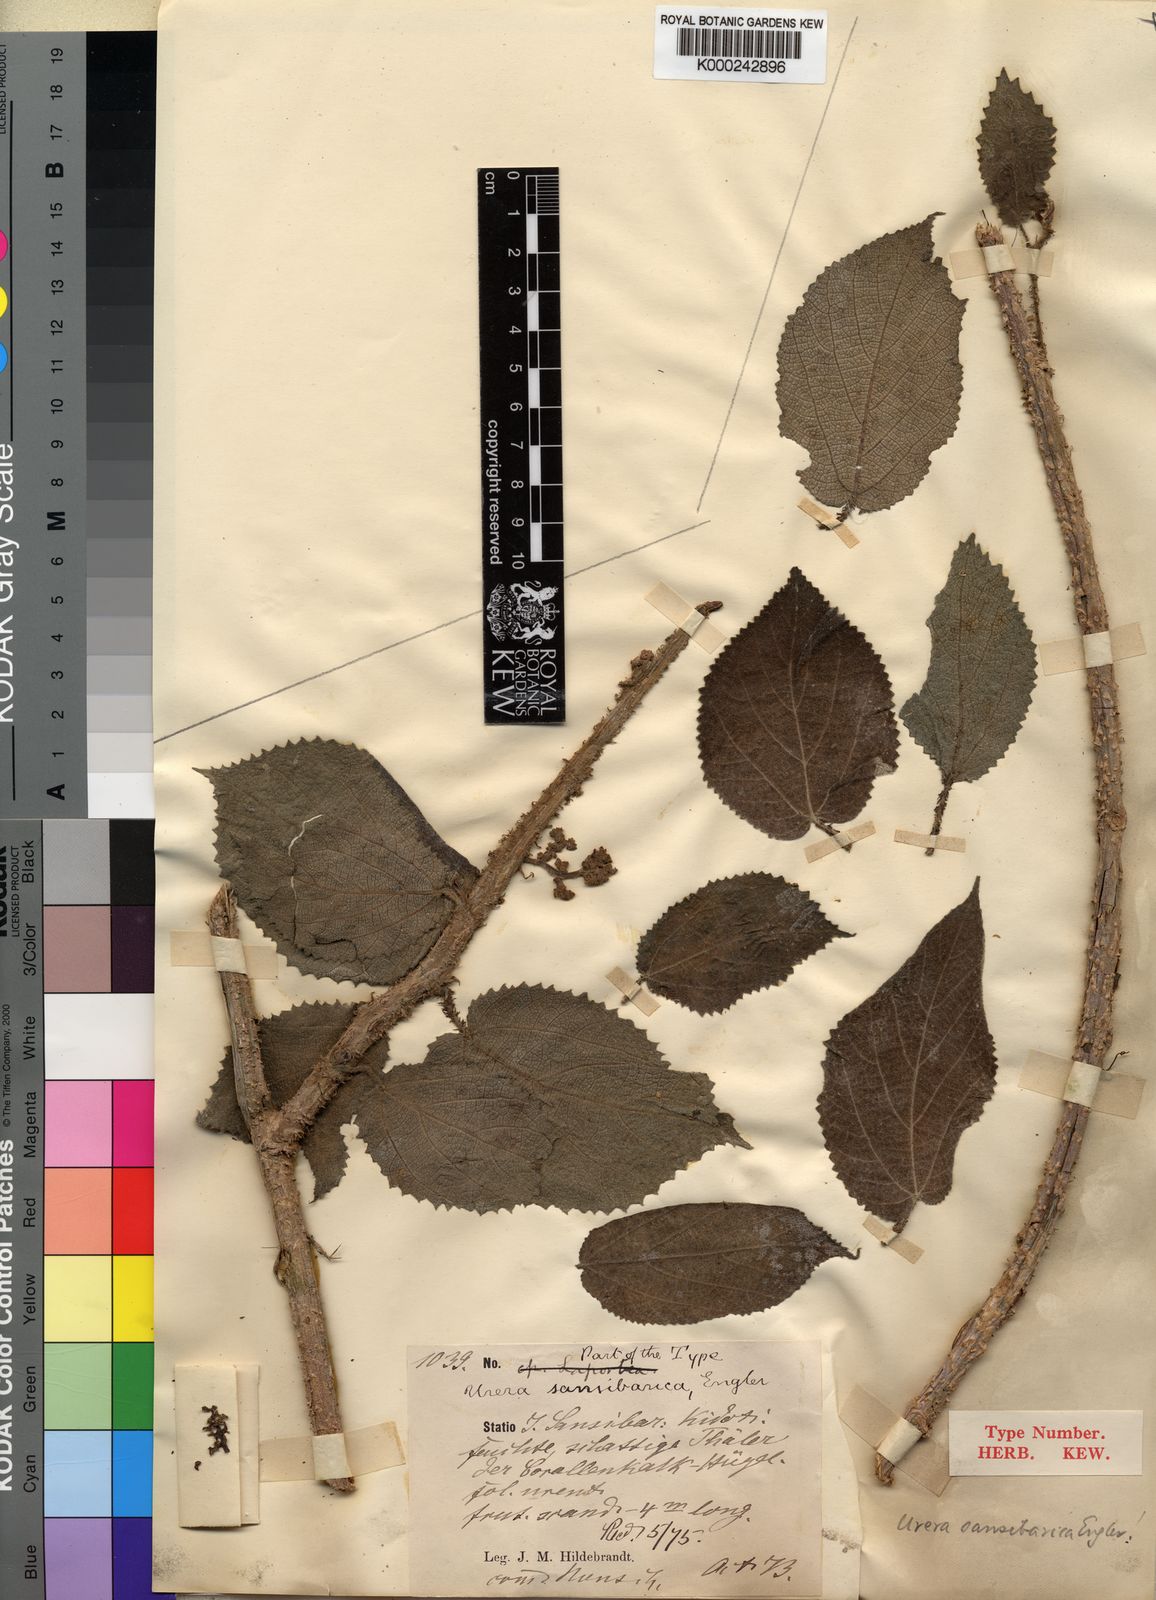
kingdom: Plantae
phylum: Tracheophyta
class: Magnoliopsida
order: Rosales
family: Urticaceae
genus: Scepocarpus
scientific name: Scepocarpus
